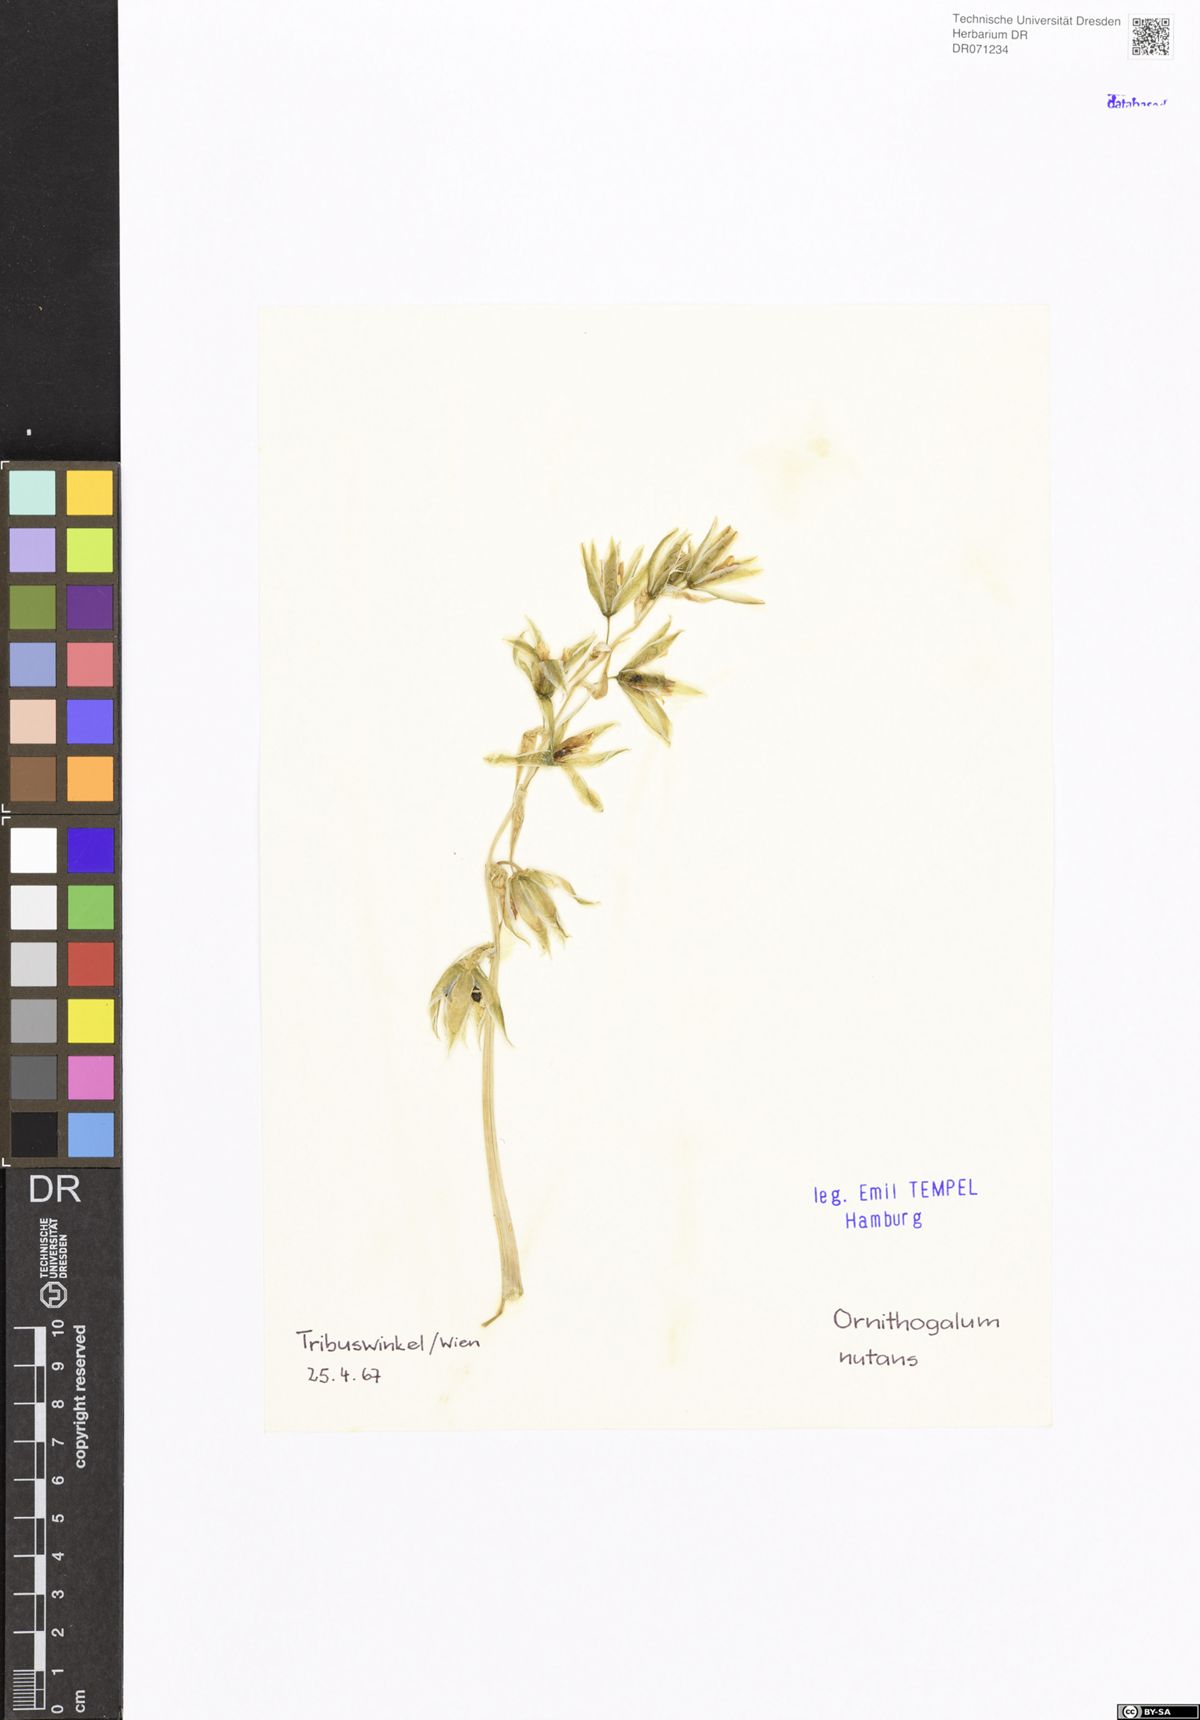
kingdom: Plantae
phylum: Tracheophyta
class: Liliopsida
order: Asparagales
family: Asparagaceae
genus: Ornithogalum
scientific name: Ornithogalum nutans
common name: Drooping star-of-bethlehem
